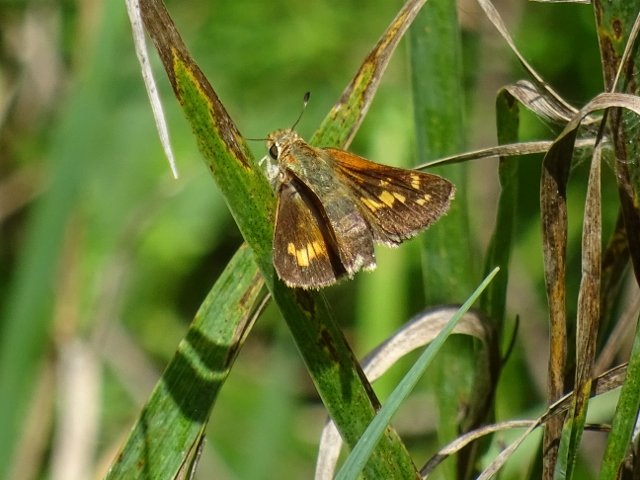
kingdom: Animalia
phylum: Arthropoda
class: Insecta
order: Lepidoptera
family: Hesperiidae
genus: Hesperia
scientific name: Hesperia leonardus
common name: Leonard's Skipper
